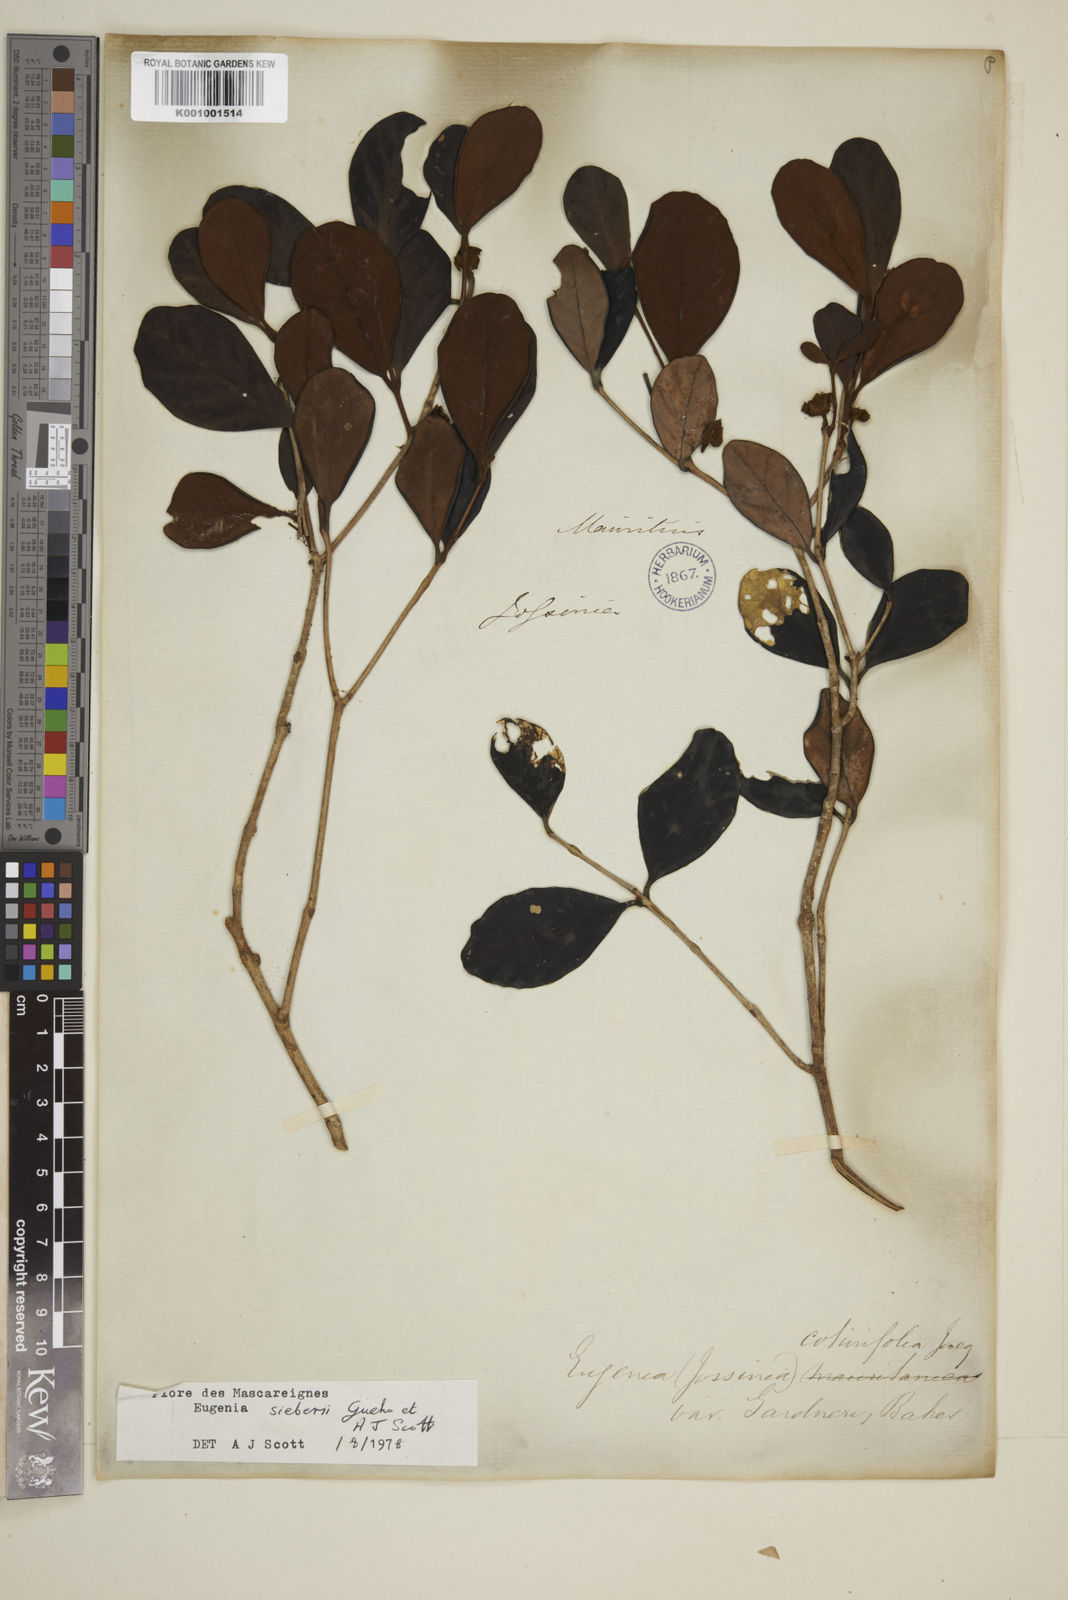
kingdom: Plantae
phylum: Tracheophyta
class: Magnoliopsida
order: Myrtales
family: Myrtaceae
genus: Eugenia
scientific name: Eugenia
